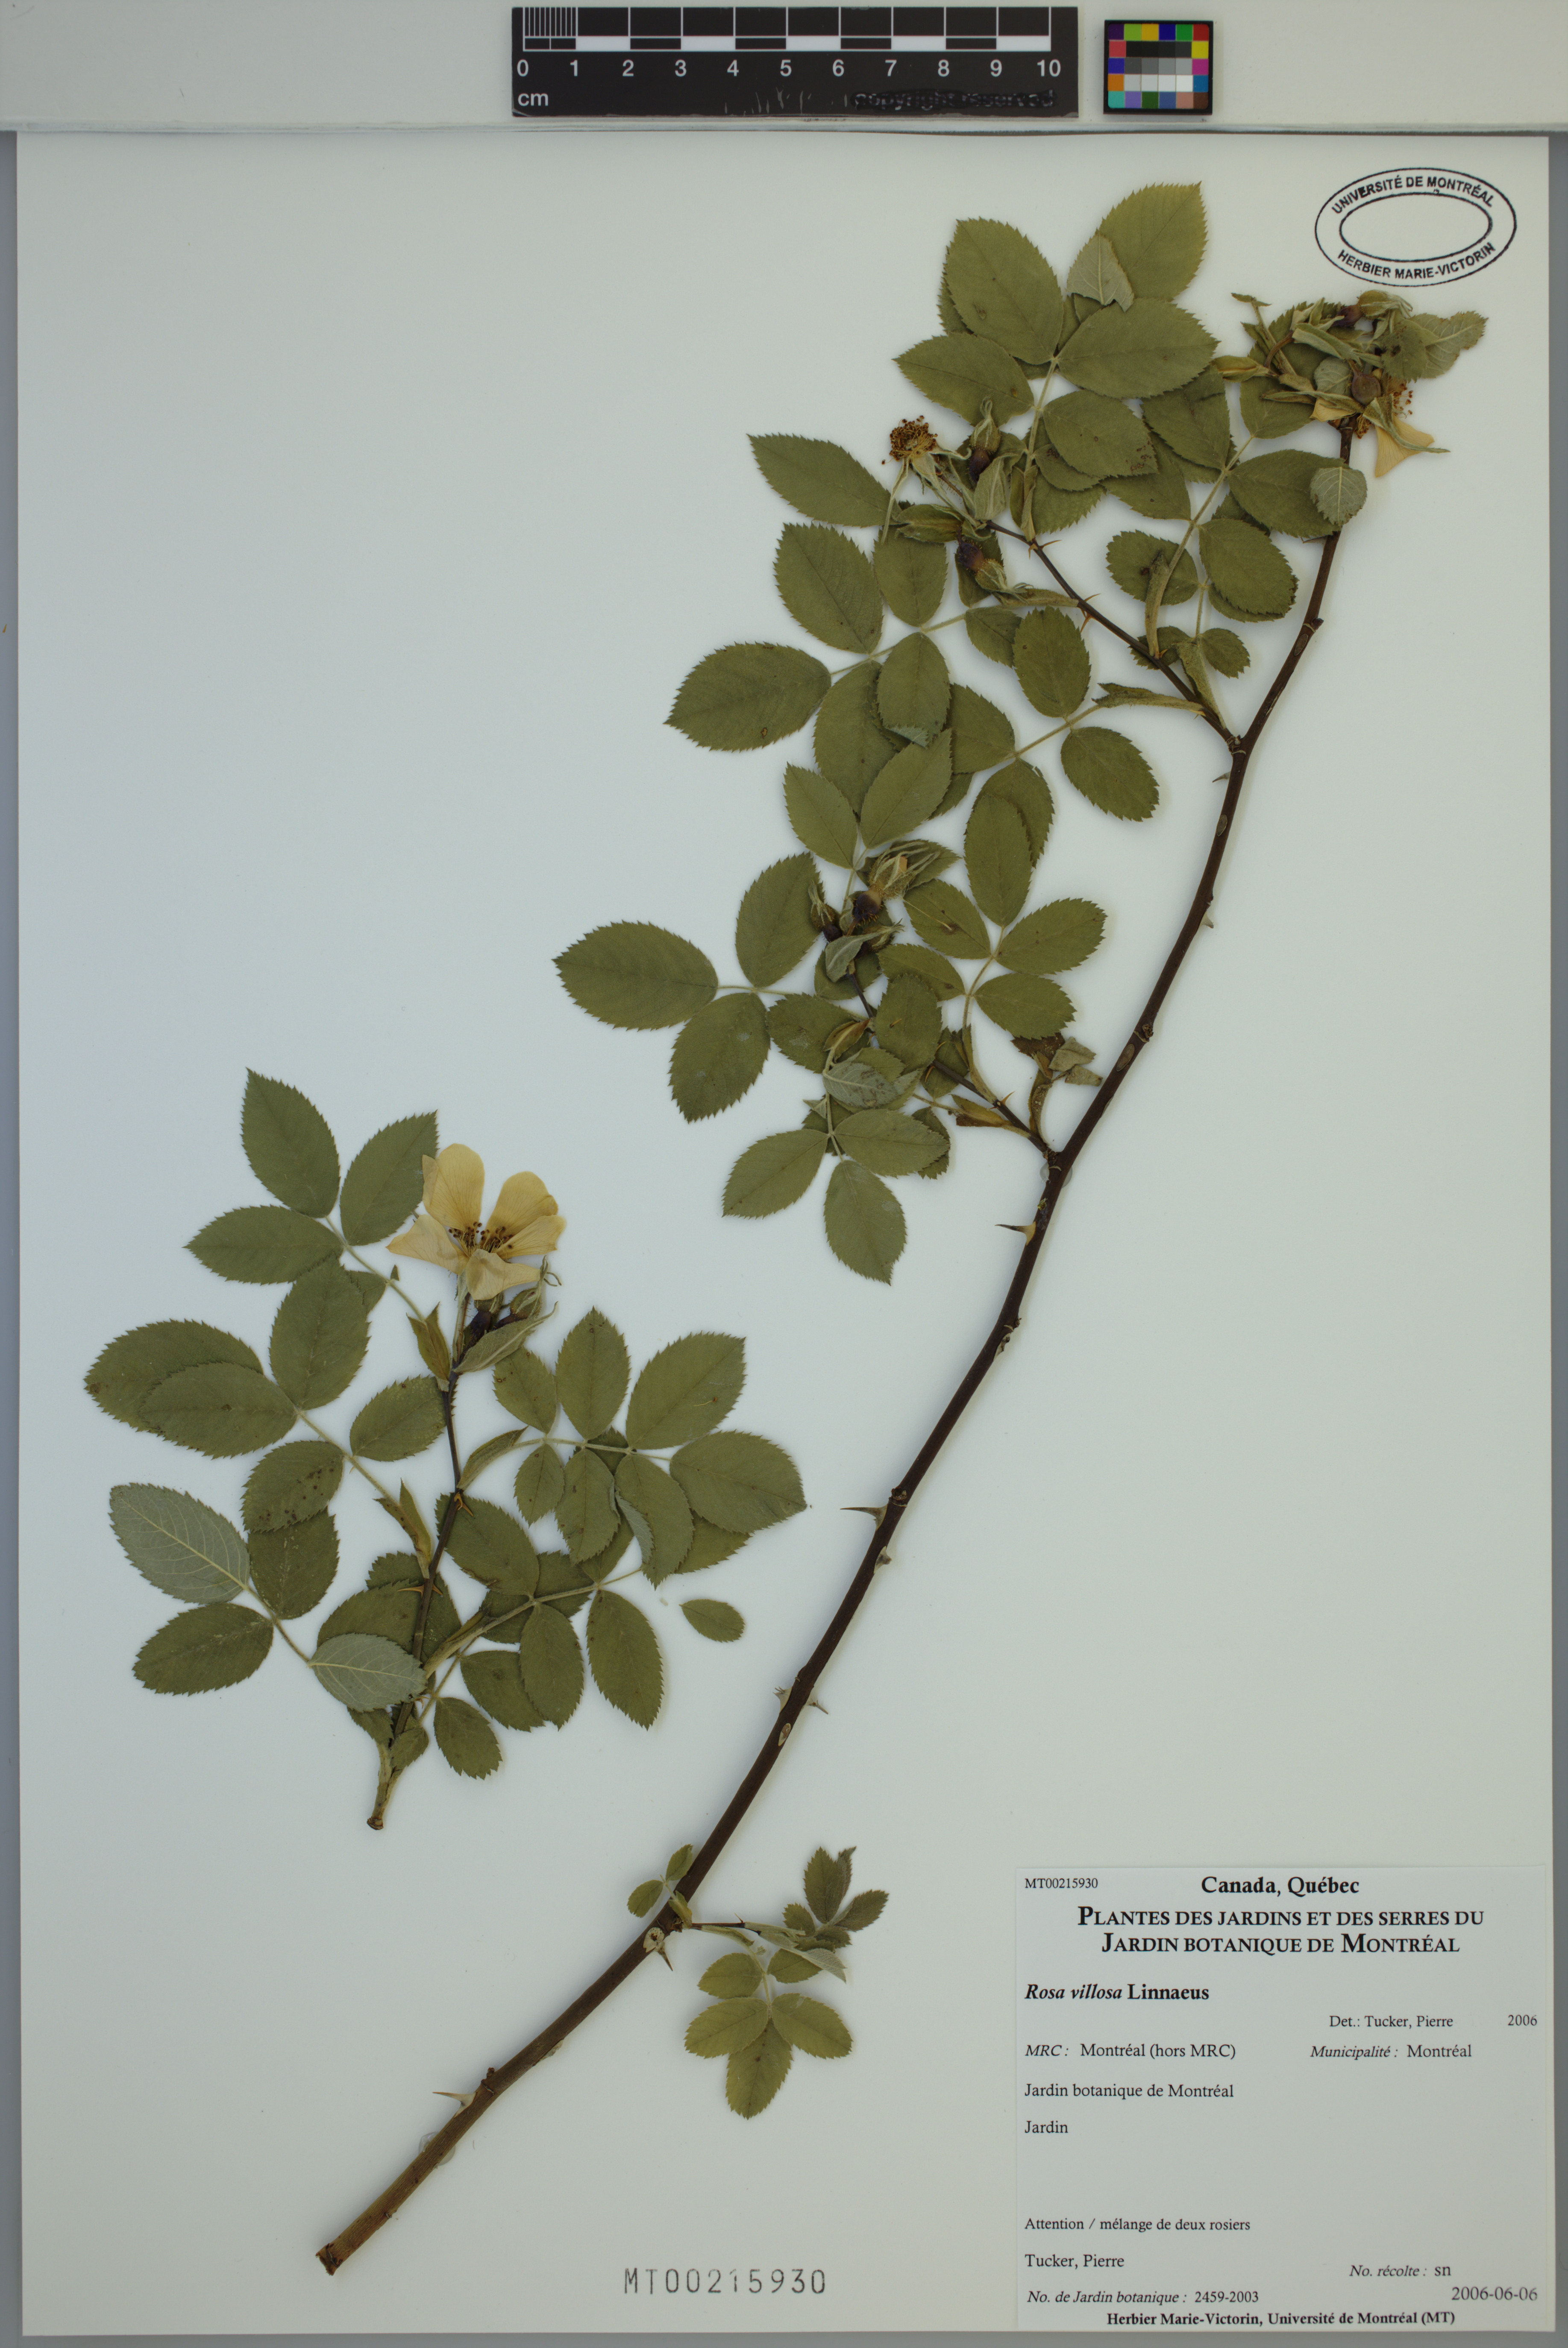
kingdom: Plantae
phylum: Tracheophyta
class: Magnoliopsida
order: Rosales
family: Rosaceae
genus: Rosa
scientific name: Rosa villosa
